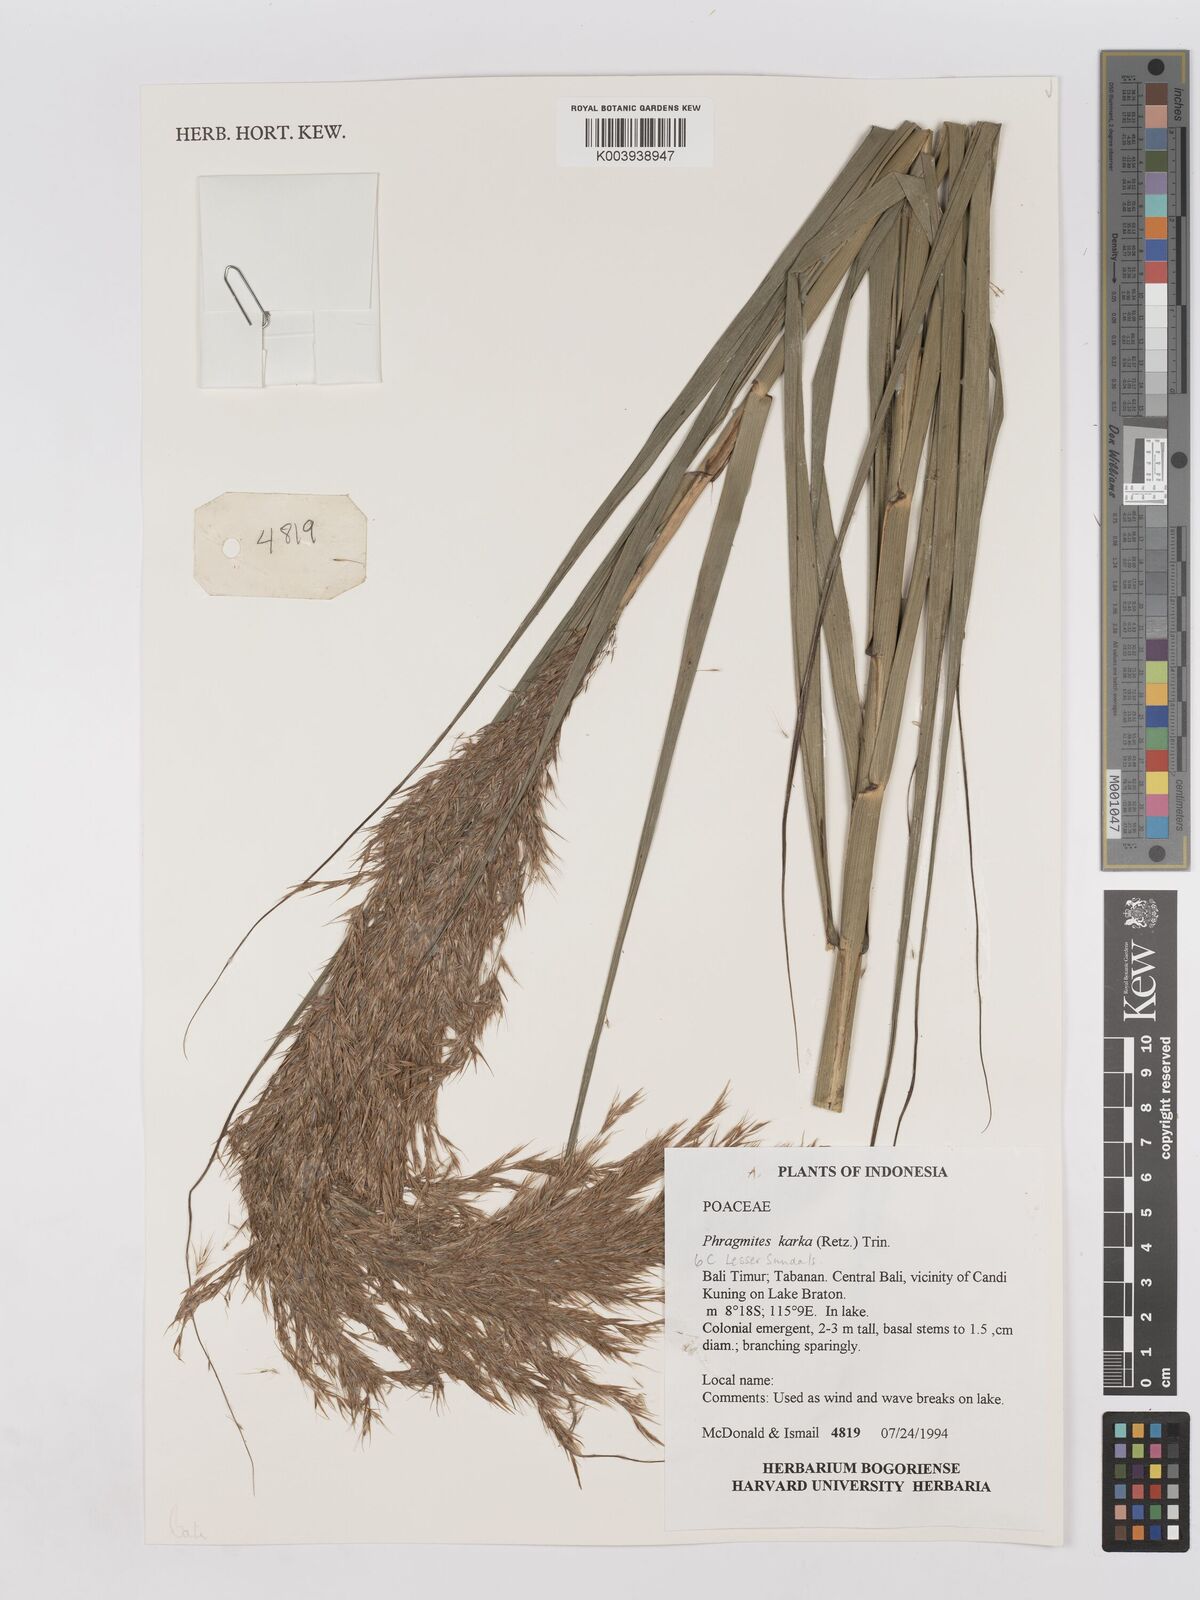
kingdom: Plantae
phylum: Tracheophyta
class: Liliopsida
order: Poales
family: Poaceae
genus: Phragmites
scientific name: Phragmites karka
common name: Tropical reed
